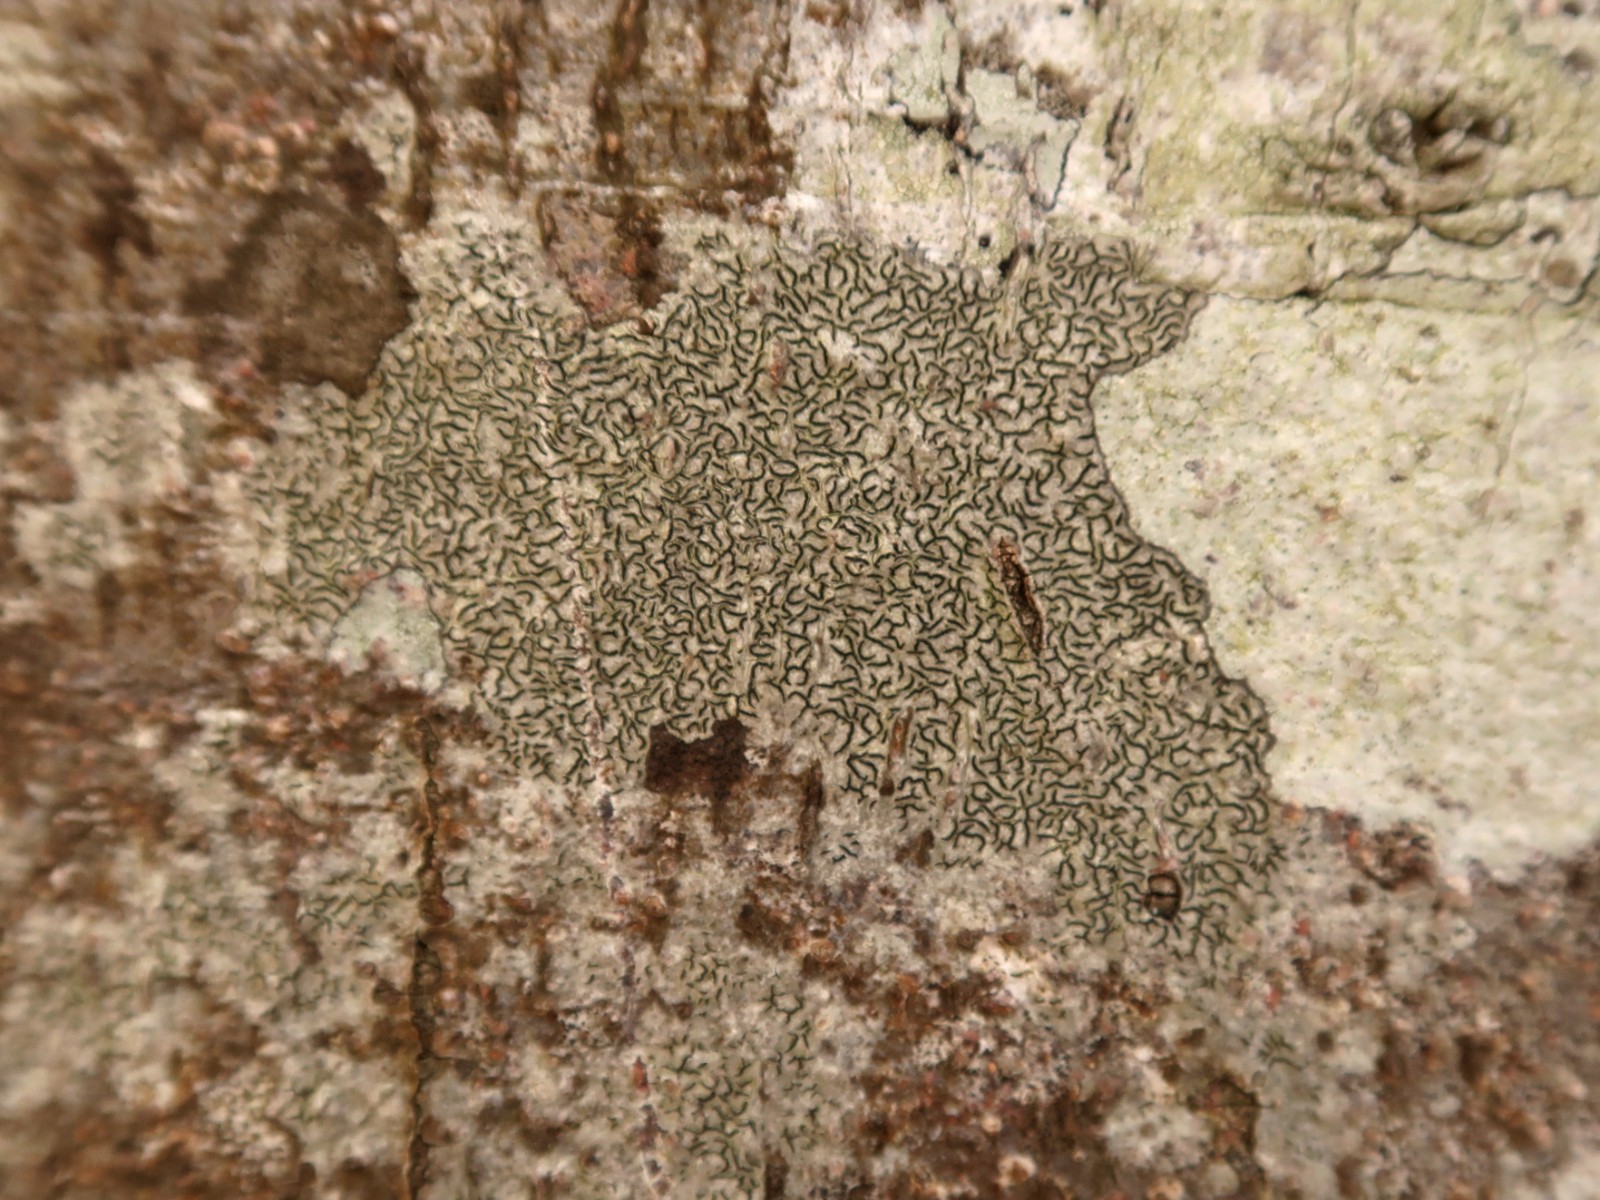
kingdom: Fungi
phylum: Ascomycota
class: Lecanoromycetes
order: Ostropales
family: Graphidaceae
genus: Graphis
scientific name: Graphis scripta
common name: almindelig skriftlav
